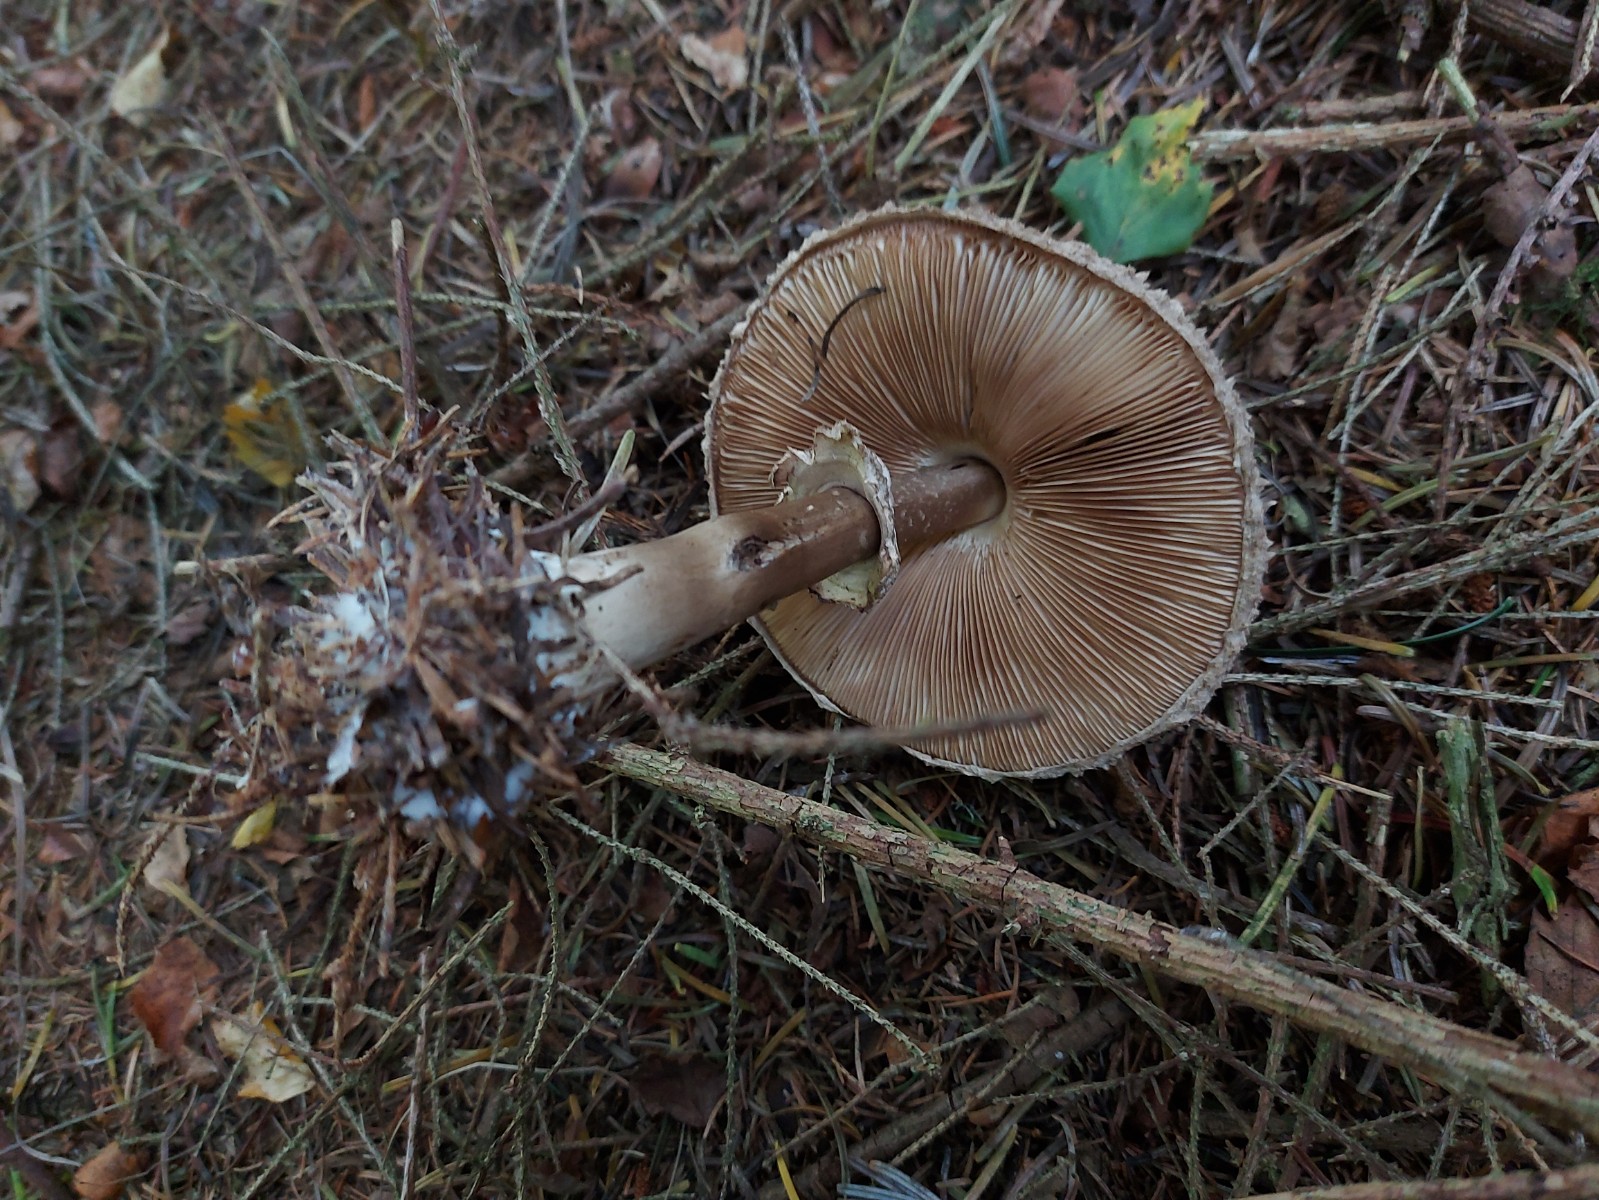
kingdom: Fungi
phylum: Basidiomycota
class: Agaricomycetes
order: Agaricales
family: Agaricaceae
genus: Leucoagaricus
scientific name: Leucoagaricus nympharum
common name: gran-silkehat
